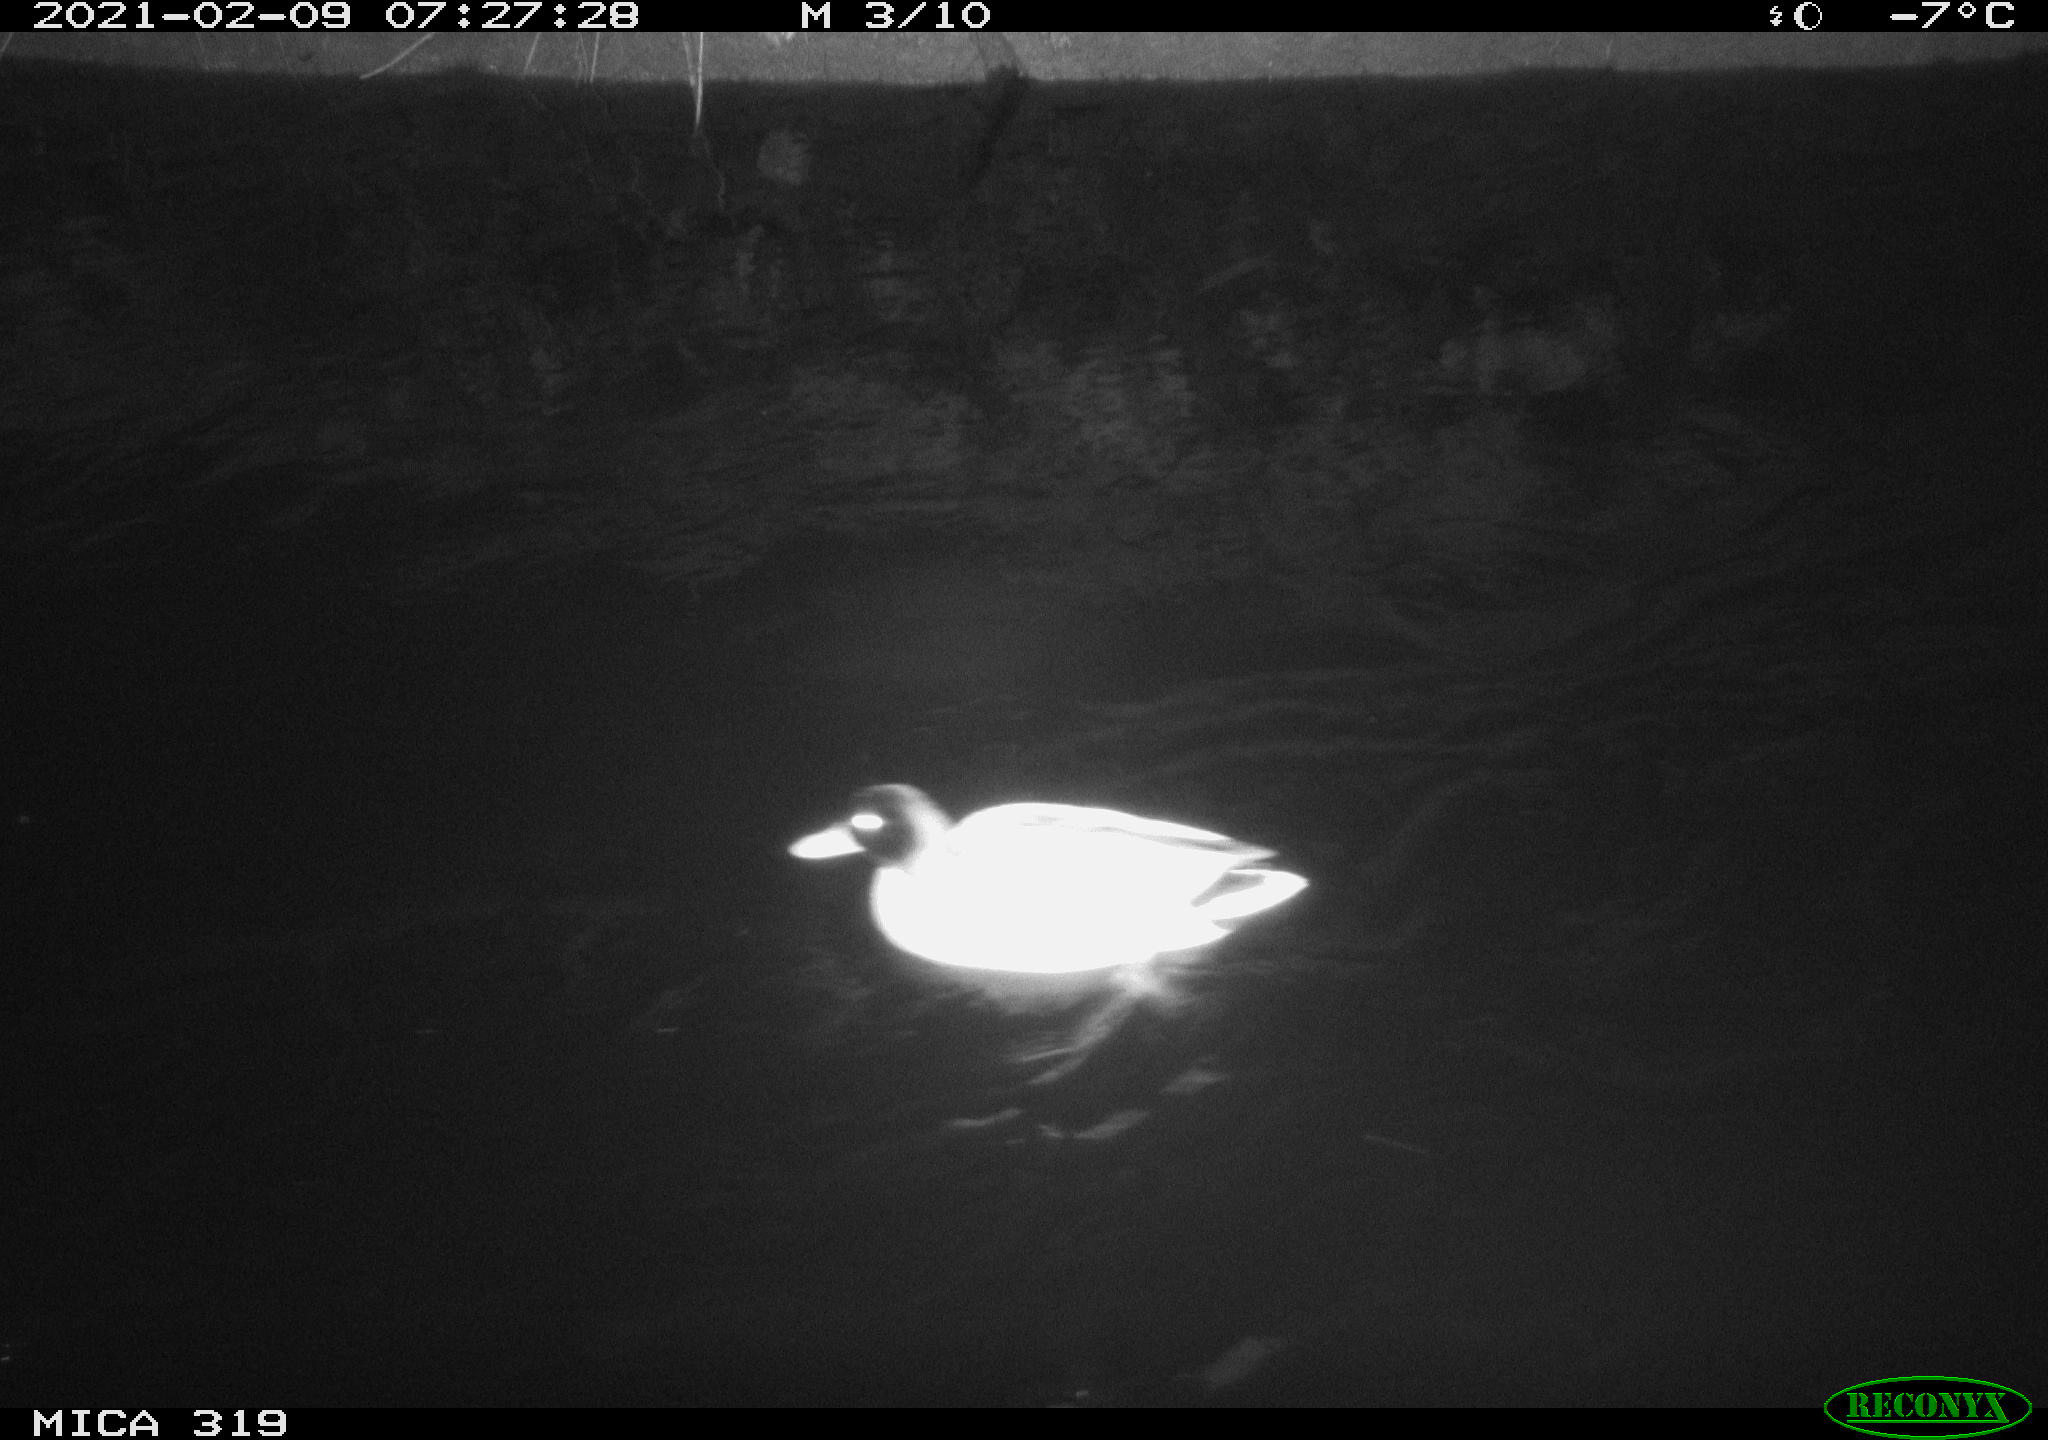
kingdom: Animalia
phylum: Chordata
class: Aves
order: Anseriformes
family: Anatidae
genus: Anas
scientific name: Anas platyrhynchos
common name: Mallard
